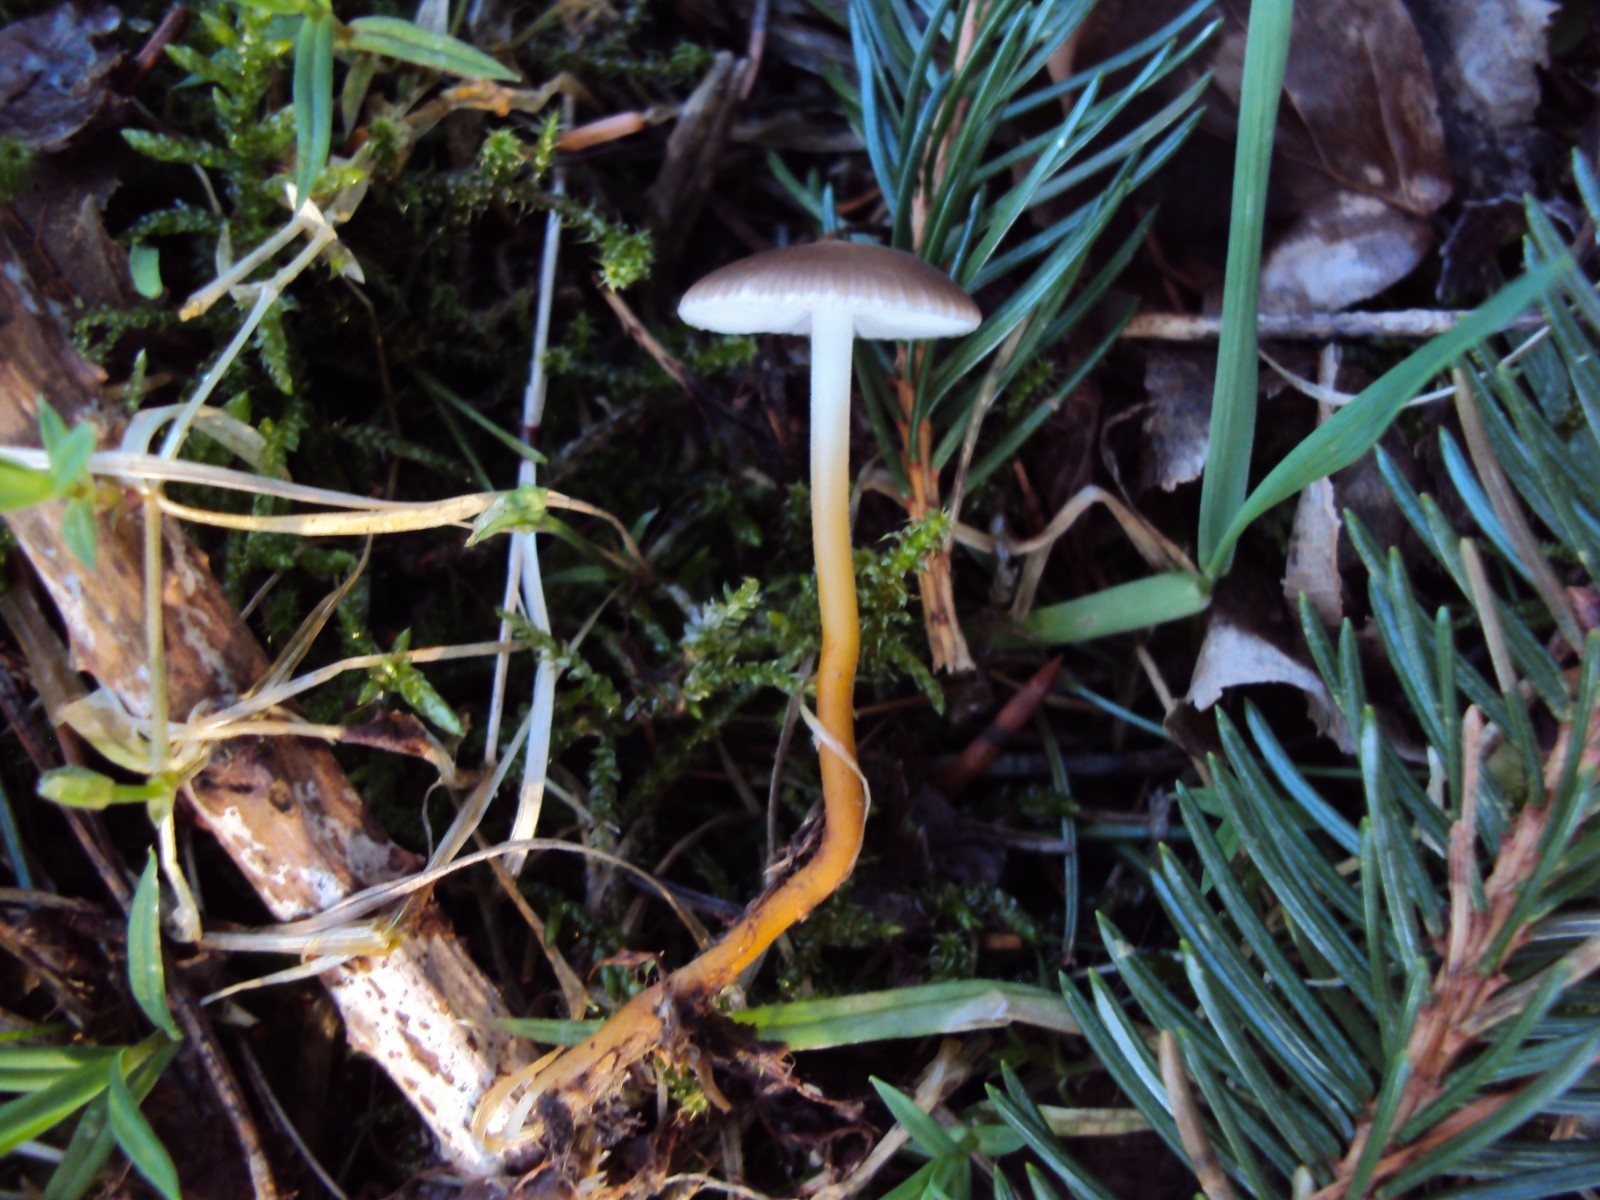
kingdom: Fungi
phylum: Basidiomycota
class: Agaricomycetes
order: Agaricales
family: Physalacriaceae
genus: Strobilurus
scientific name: Strobilurus esculentus
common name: gran-koglehat
